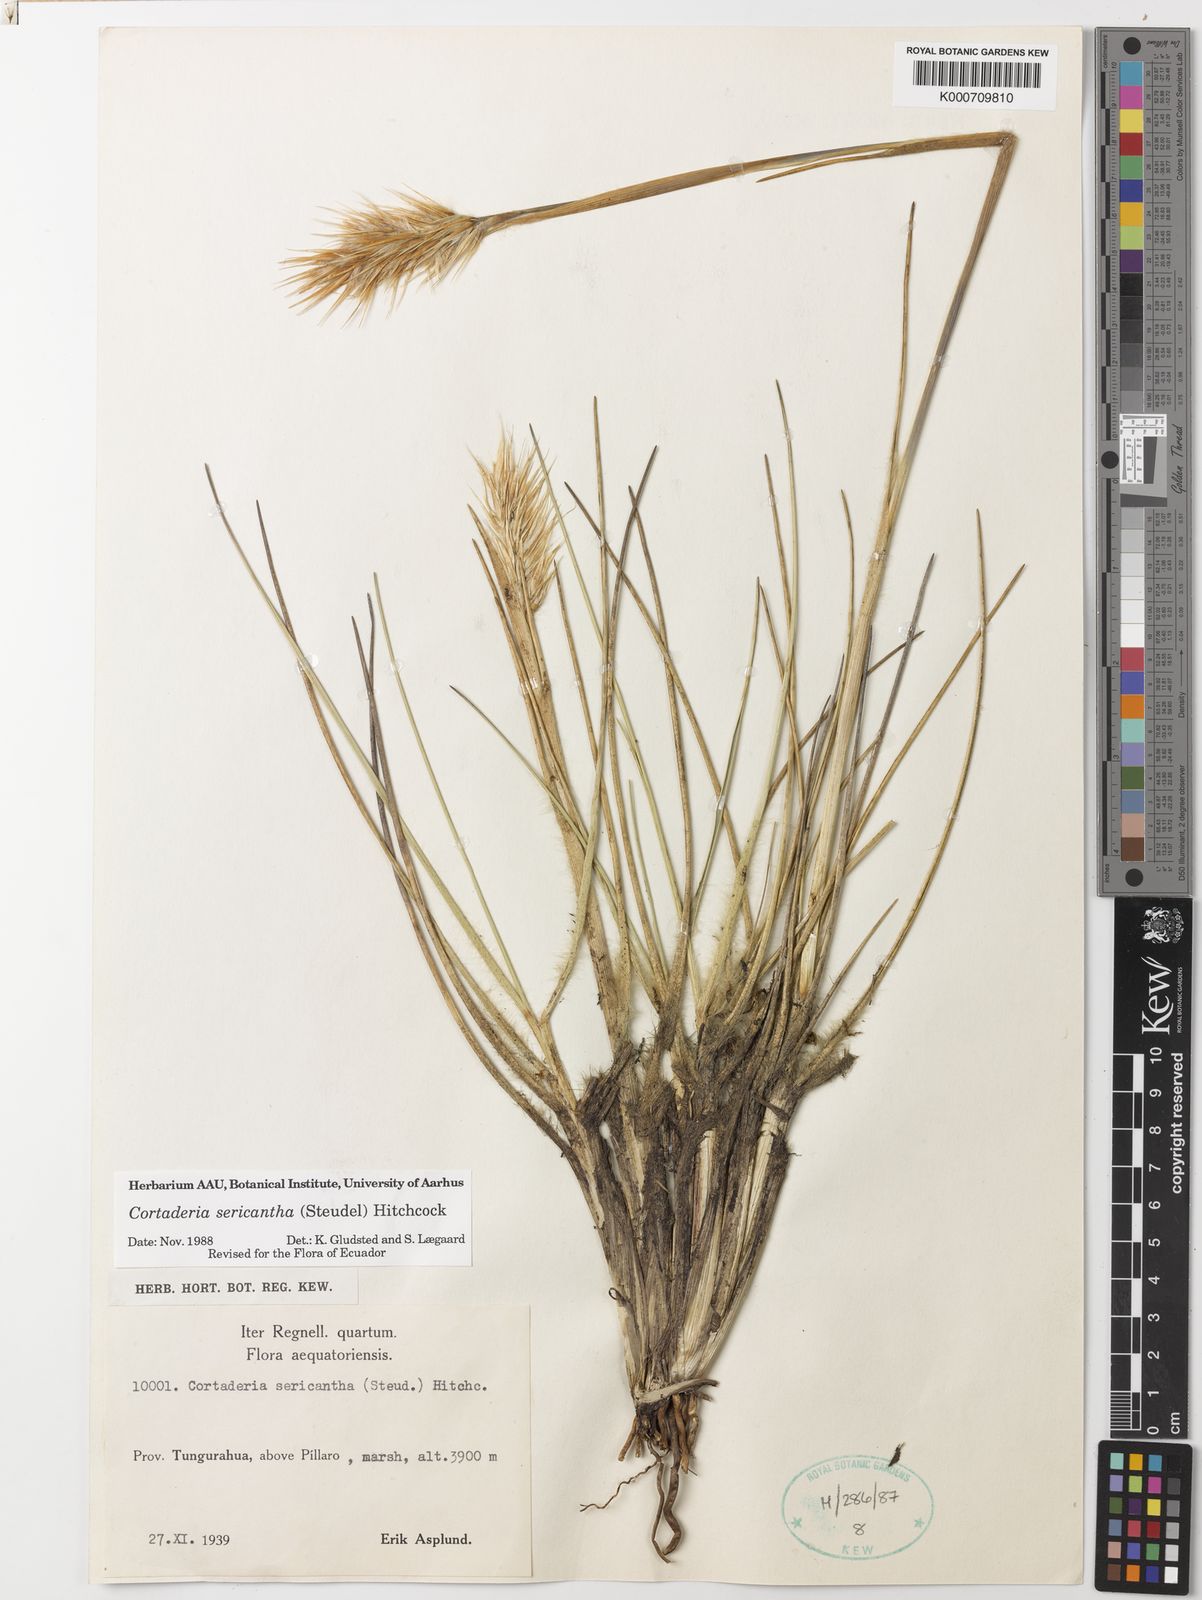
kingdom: Plantae
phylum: Tracheophyta
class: Liliopsida
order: Poales
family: Poaceae
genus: Cortaderia
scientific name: Cortaderia sericantha
